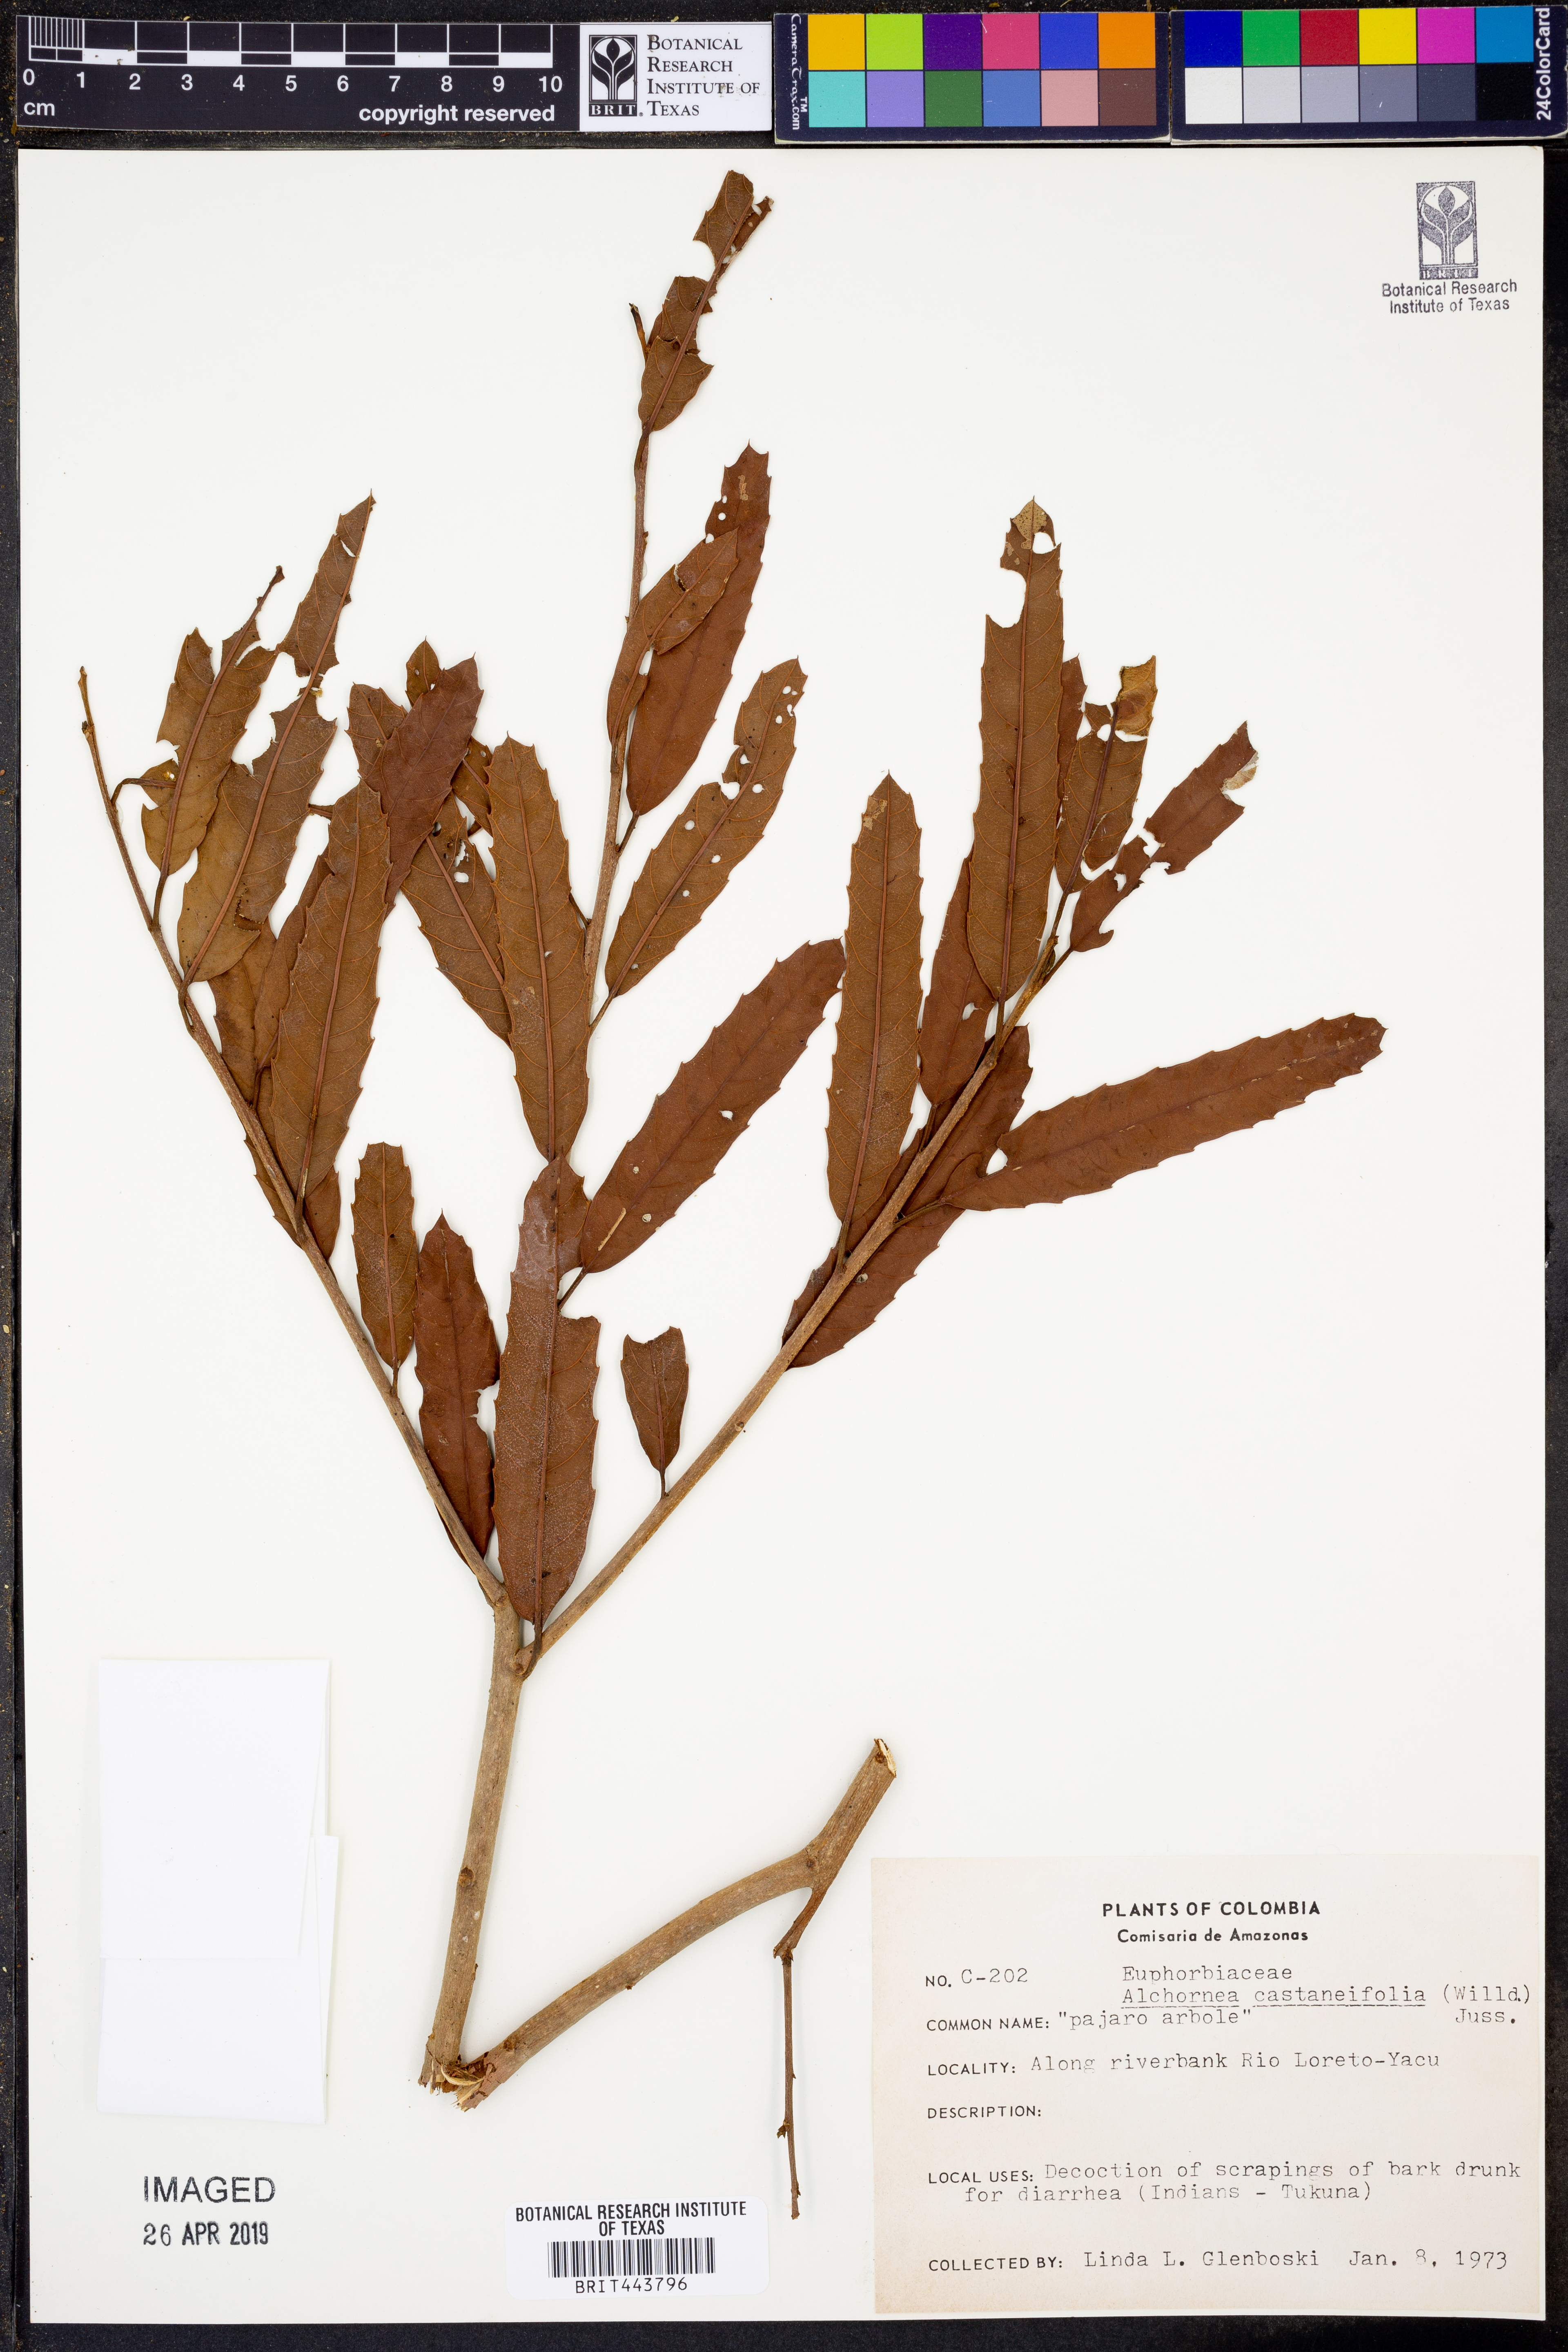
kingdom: Plantae
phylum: Tracheophyta
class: Magnoliopsida
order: Malpighiales
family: Euphorbiaceae
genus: Alchornea
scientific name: Alchornea castaneifolia
